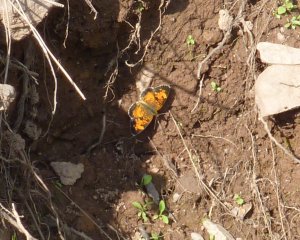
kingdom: Animalia
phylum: Arthropoda
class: Insecta
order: Lepidoptera
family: Nymphalidae
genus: Phyciodes
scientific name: Phyciodes tharos
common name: Northern Crescent
